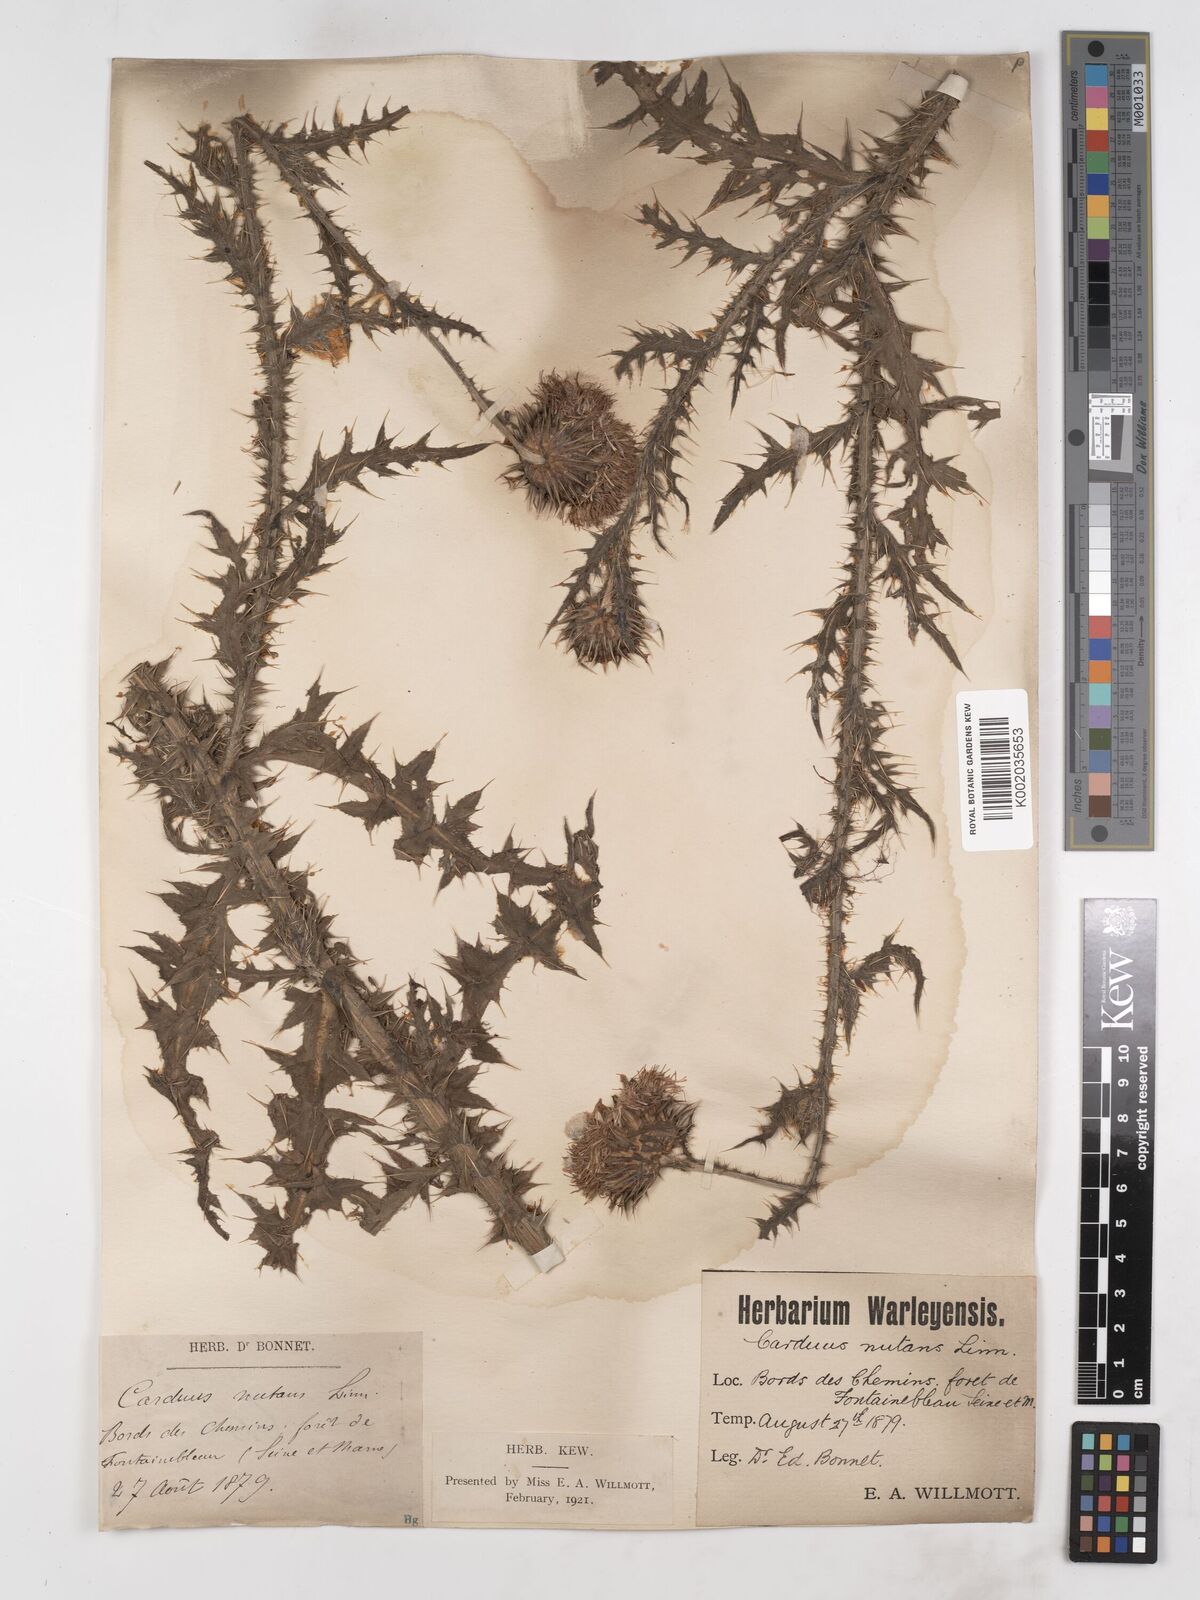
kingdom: Plantae
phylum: Tracheophyta
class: Magnoliopsida
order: Asterales
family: Asteraceae
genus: Carduus
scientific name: Carduus nutans
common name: Musk thistle
